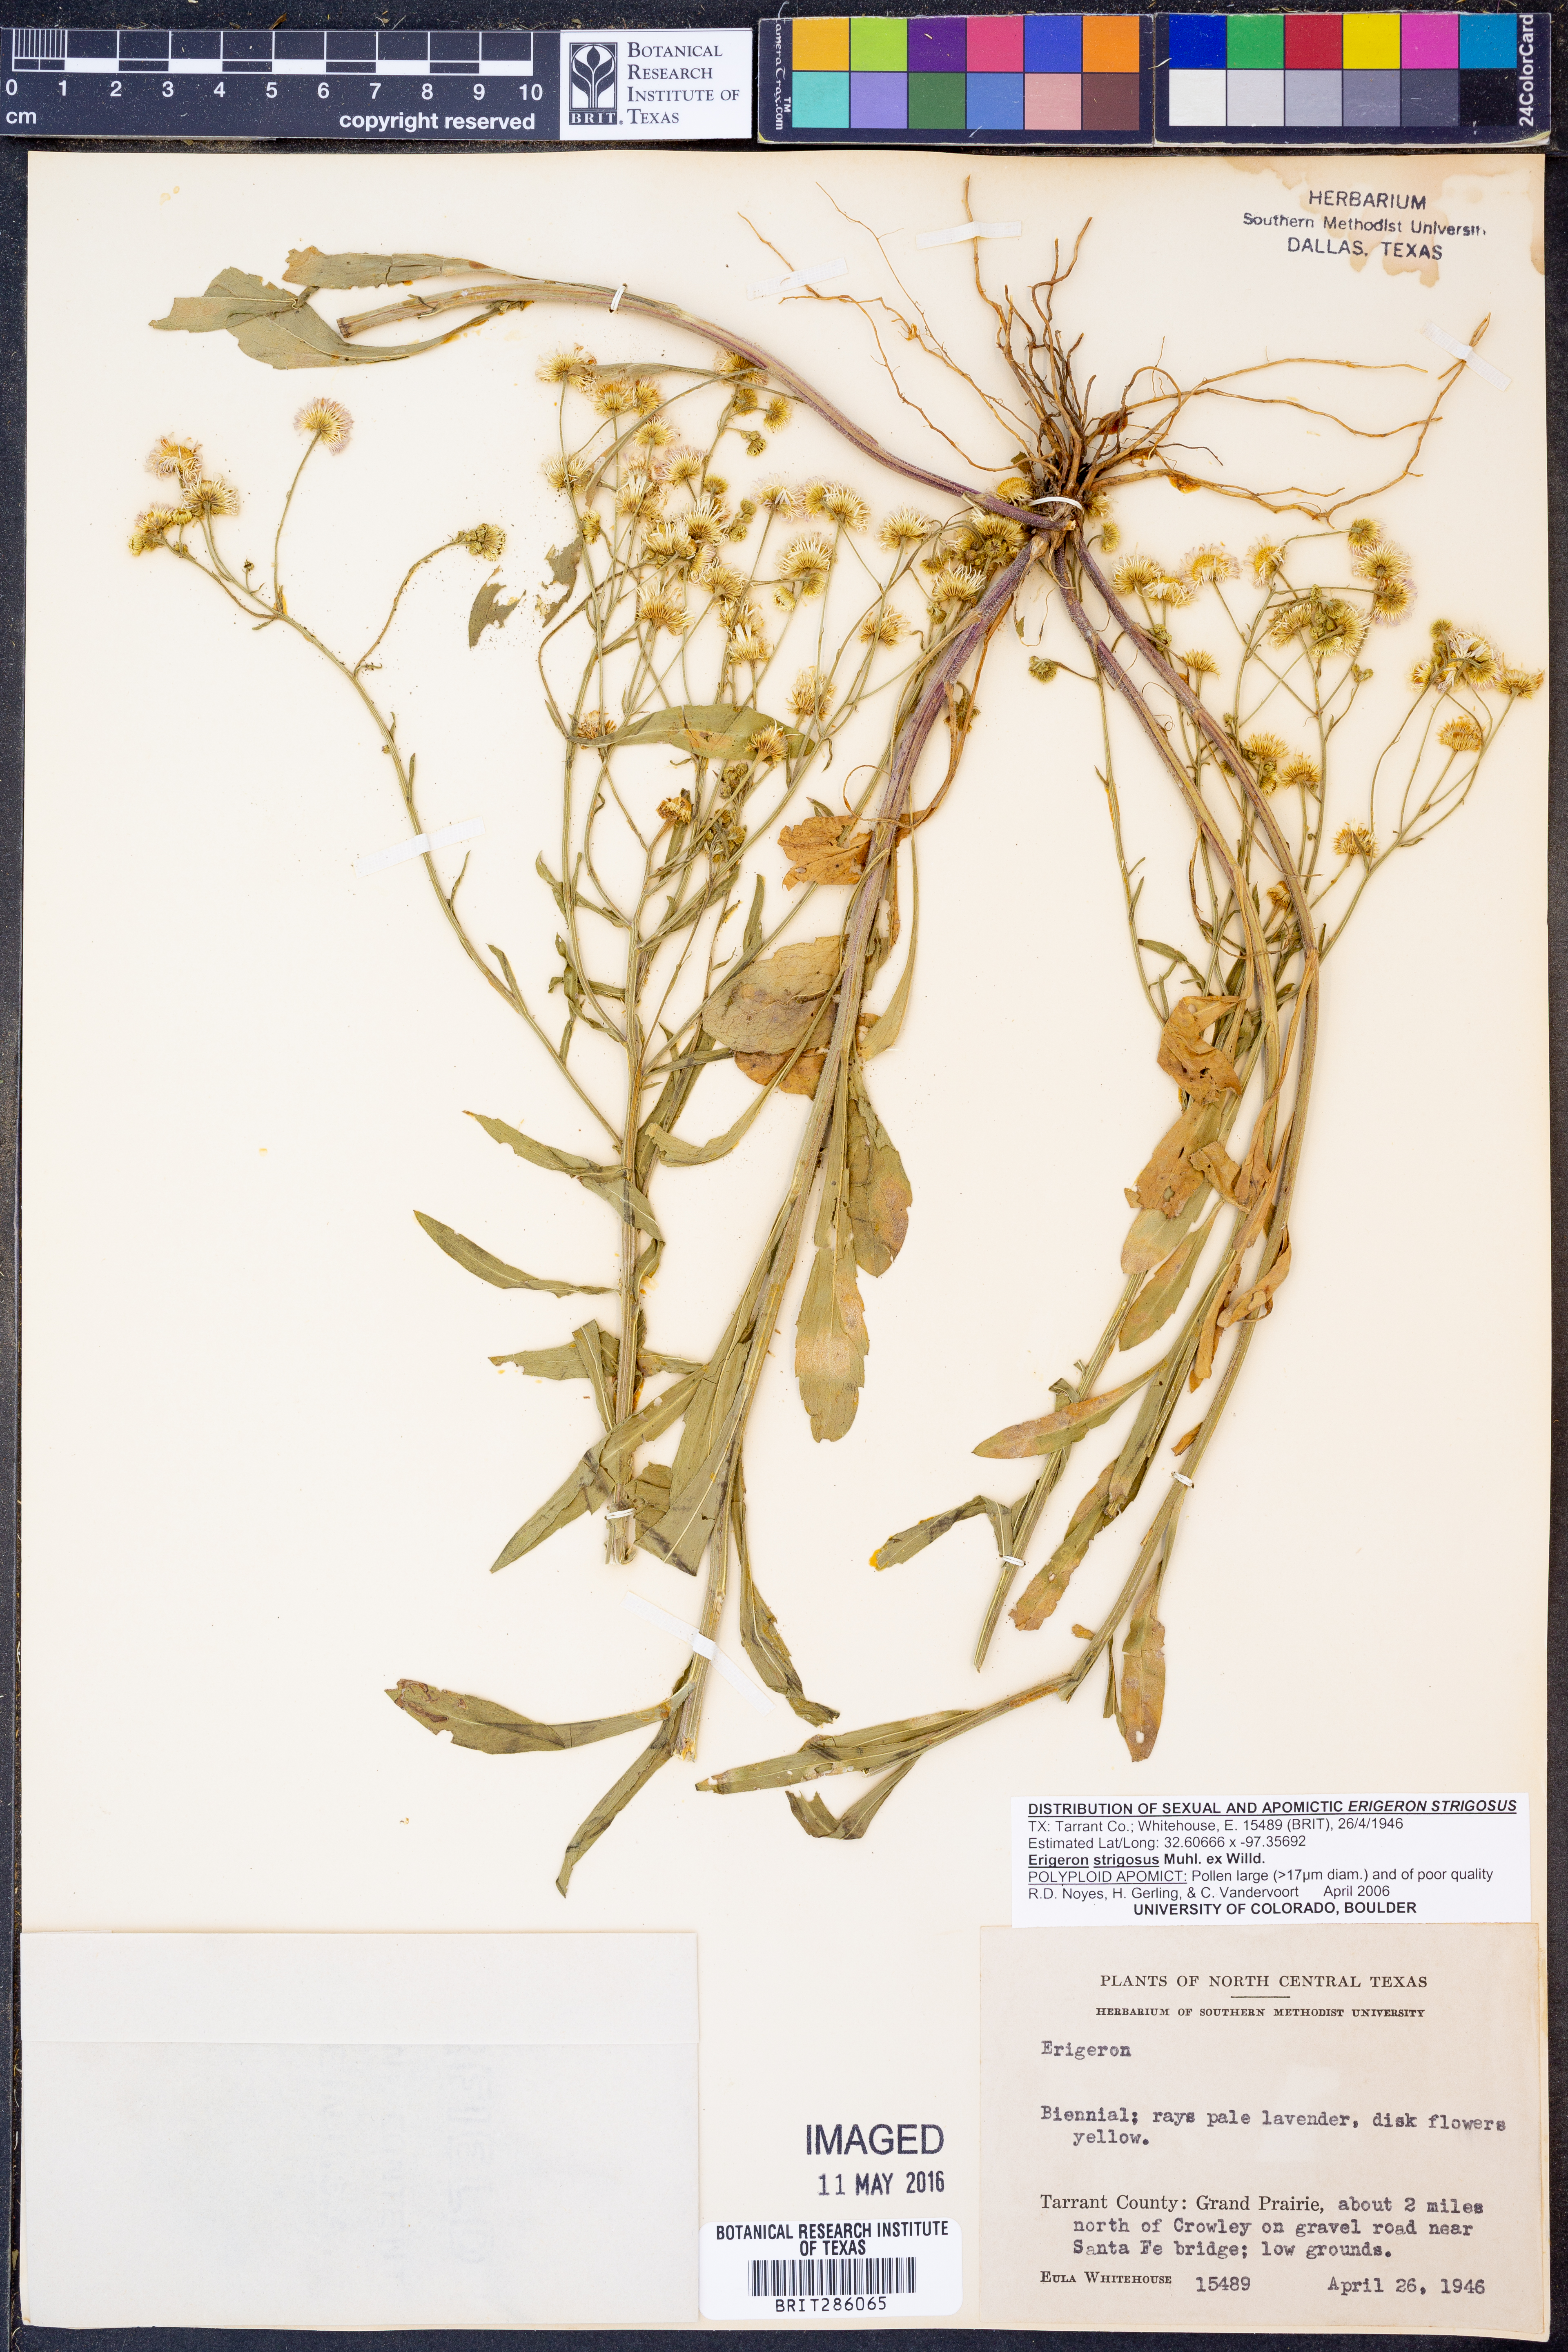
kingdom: Plantae
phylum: Tracheophyta
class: Magnoliopsida
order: Asterales
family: Asteraceae
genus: Erigeron
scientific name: Erigeron strigosus
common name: Common eastern fleabane
